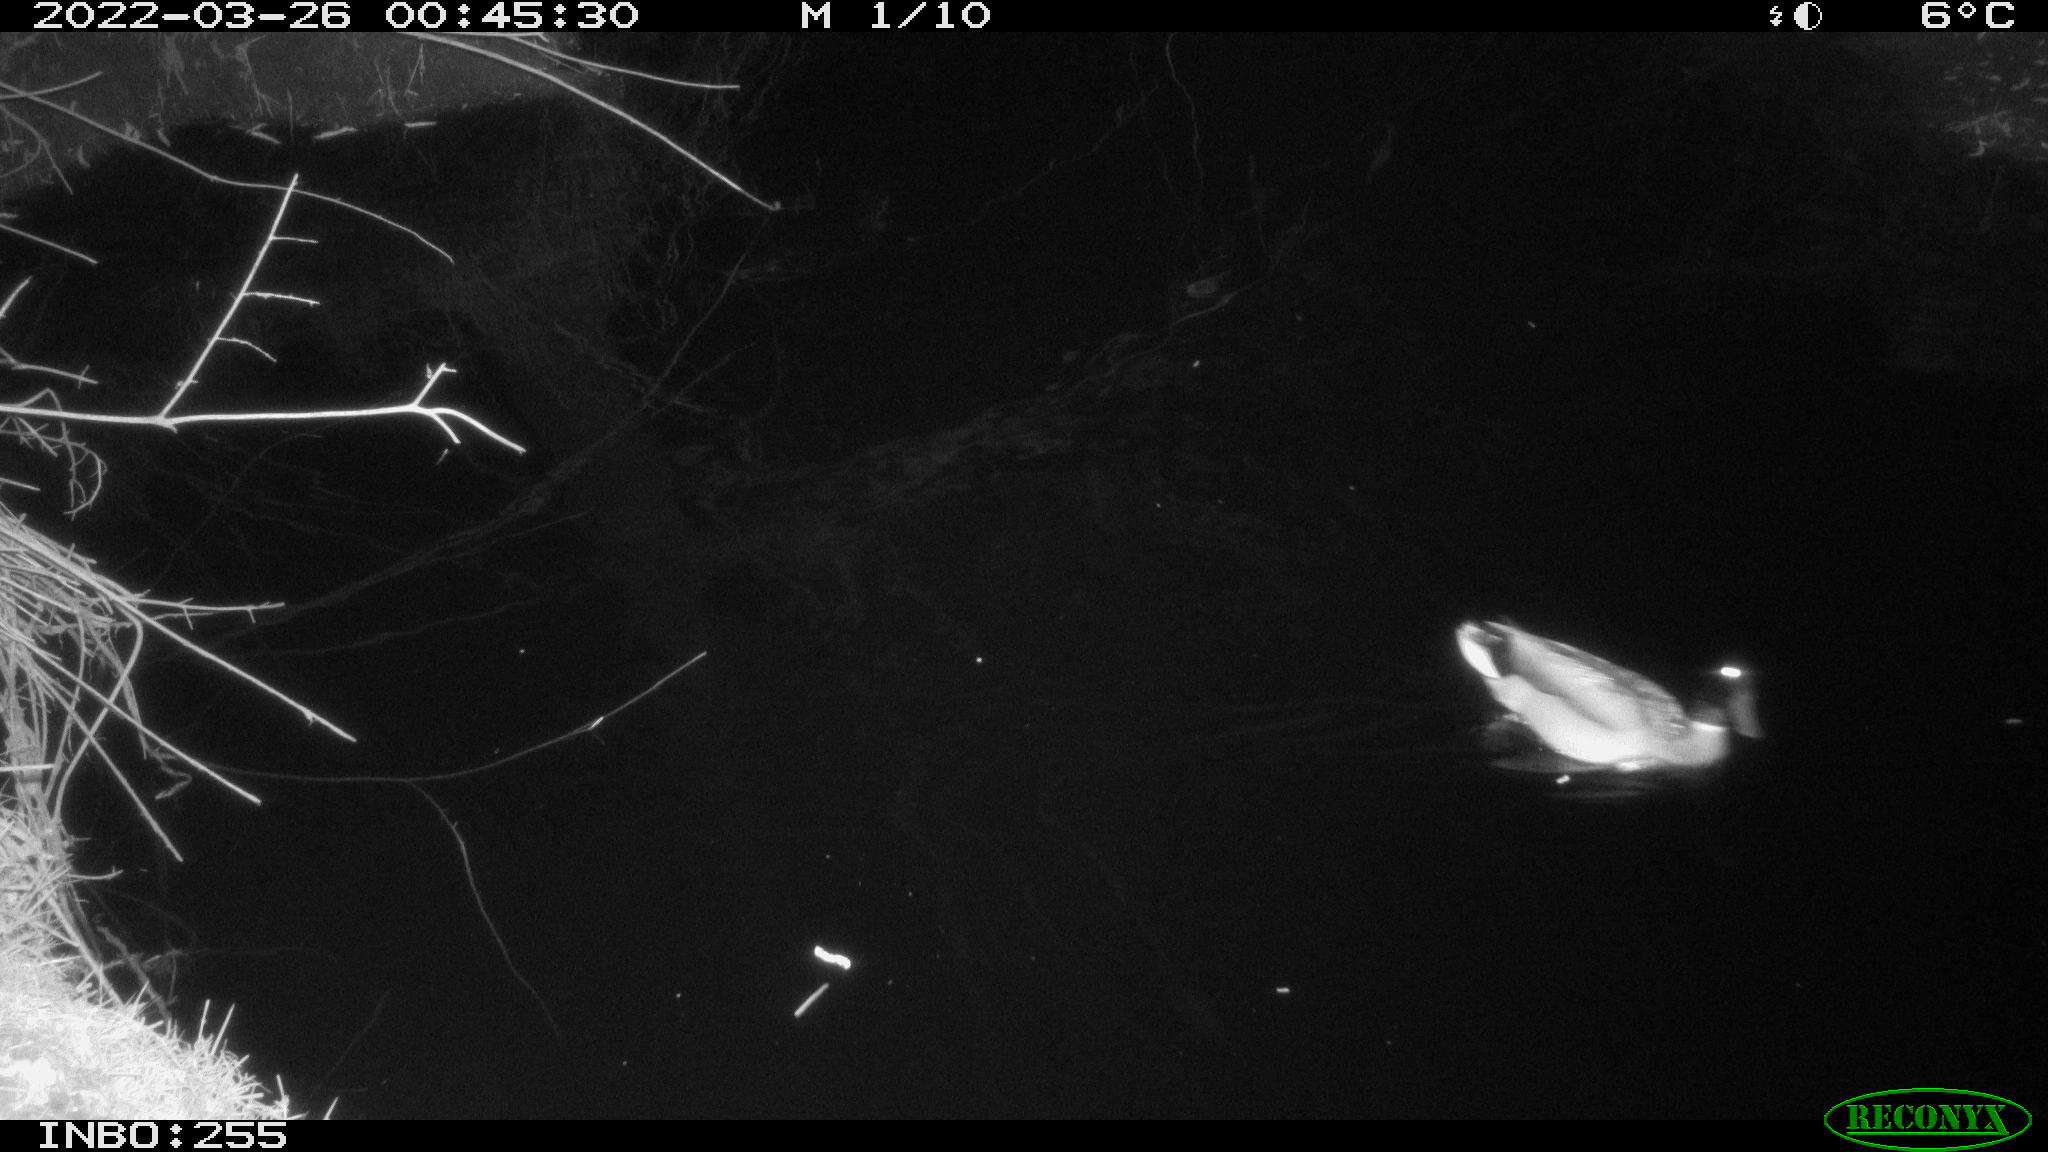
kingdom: Animalia
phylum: Chordata
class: Aves
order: Anseriformes
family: Anatidae
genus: Anas
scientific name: Anas platyrhynchos
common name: Mallard
